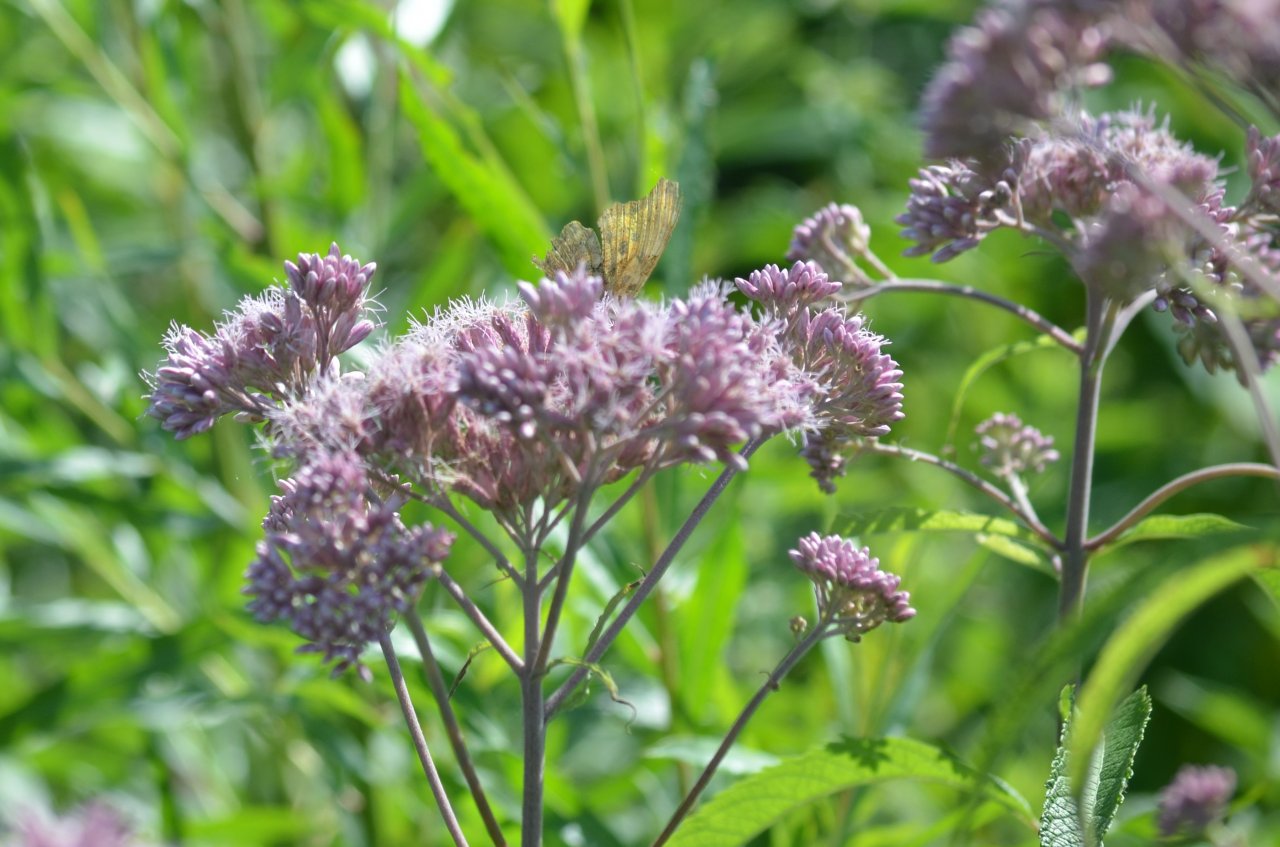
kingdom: Animalia
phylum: Arthropoda
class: Insecta
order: Lepidoptera
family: Nymphalidae
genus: Polygonia
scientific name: Polygonia comma
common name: Eastern Comma
